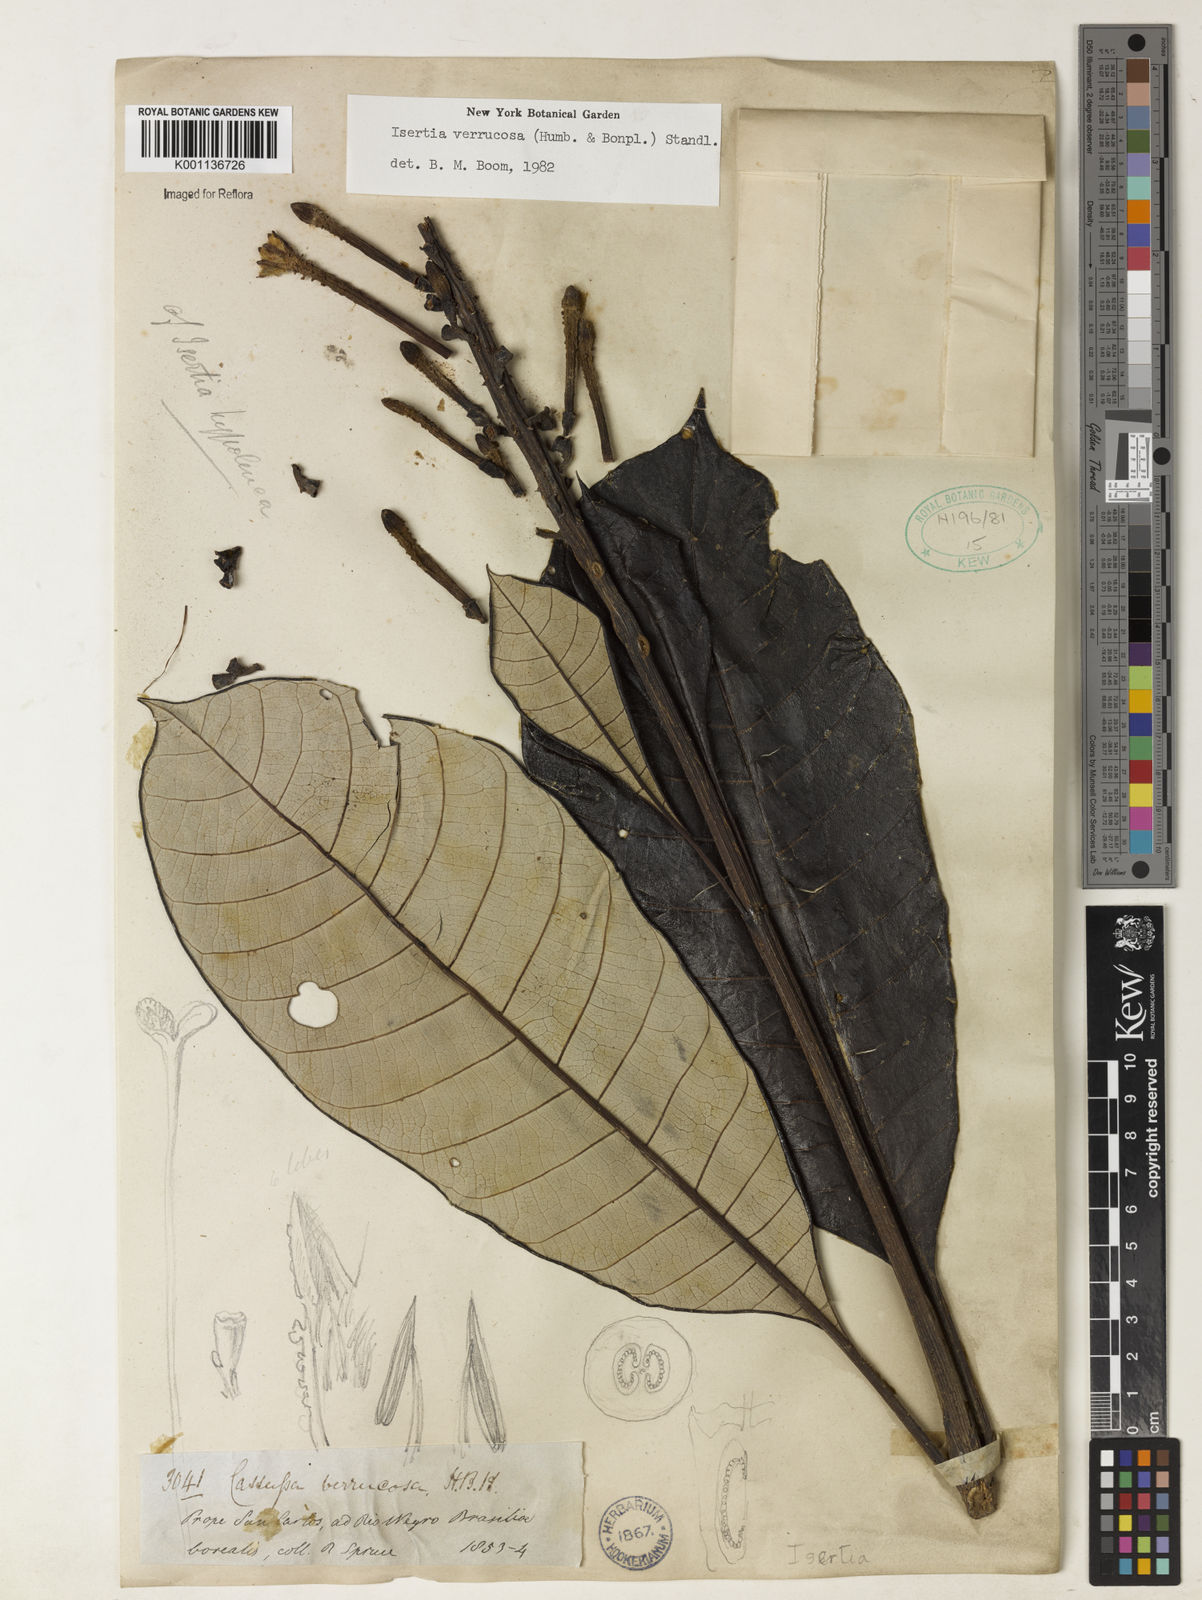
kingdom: Plantae
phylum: Tracheophyta
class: Magnoliopsida
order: Gentianales
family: Rubiaceae
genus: Isertia
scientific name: Isertia verrucosa
